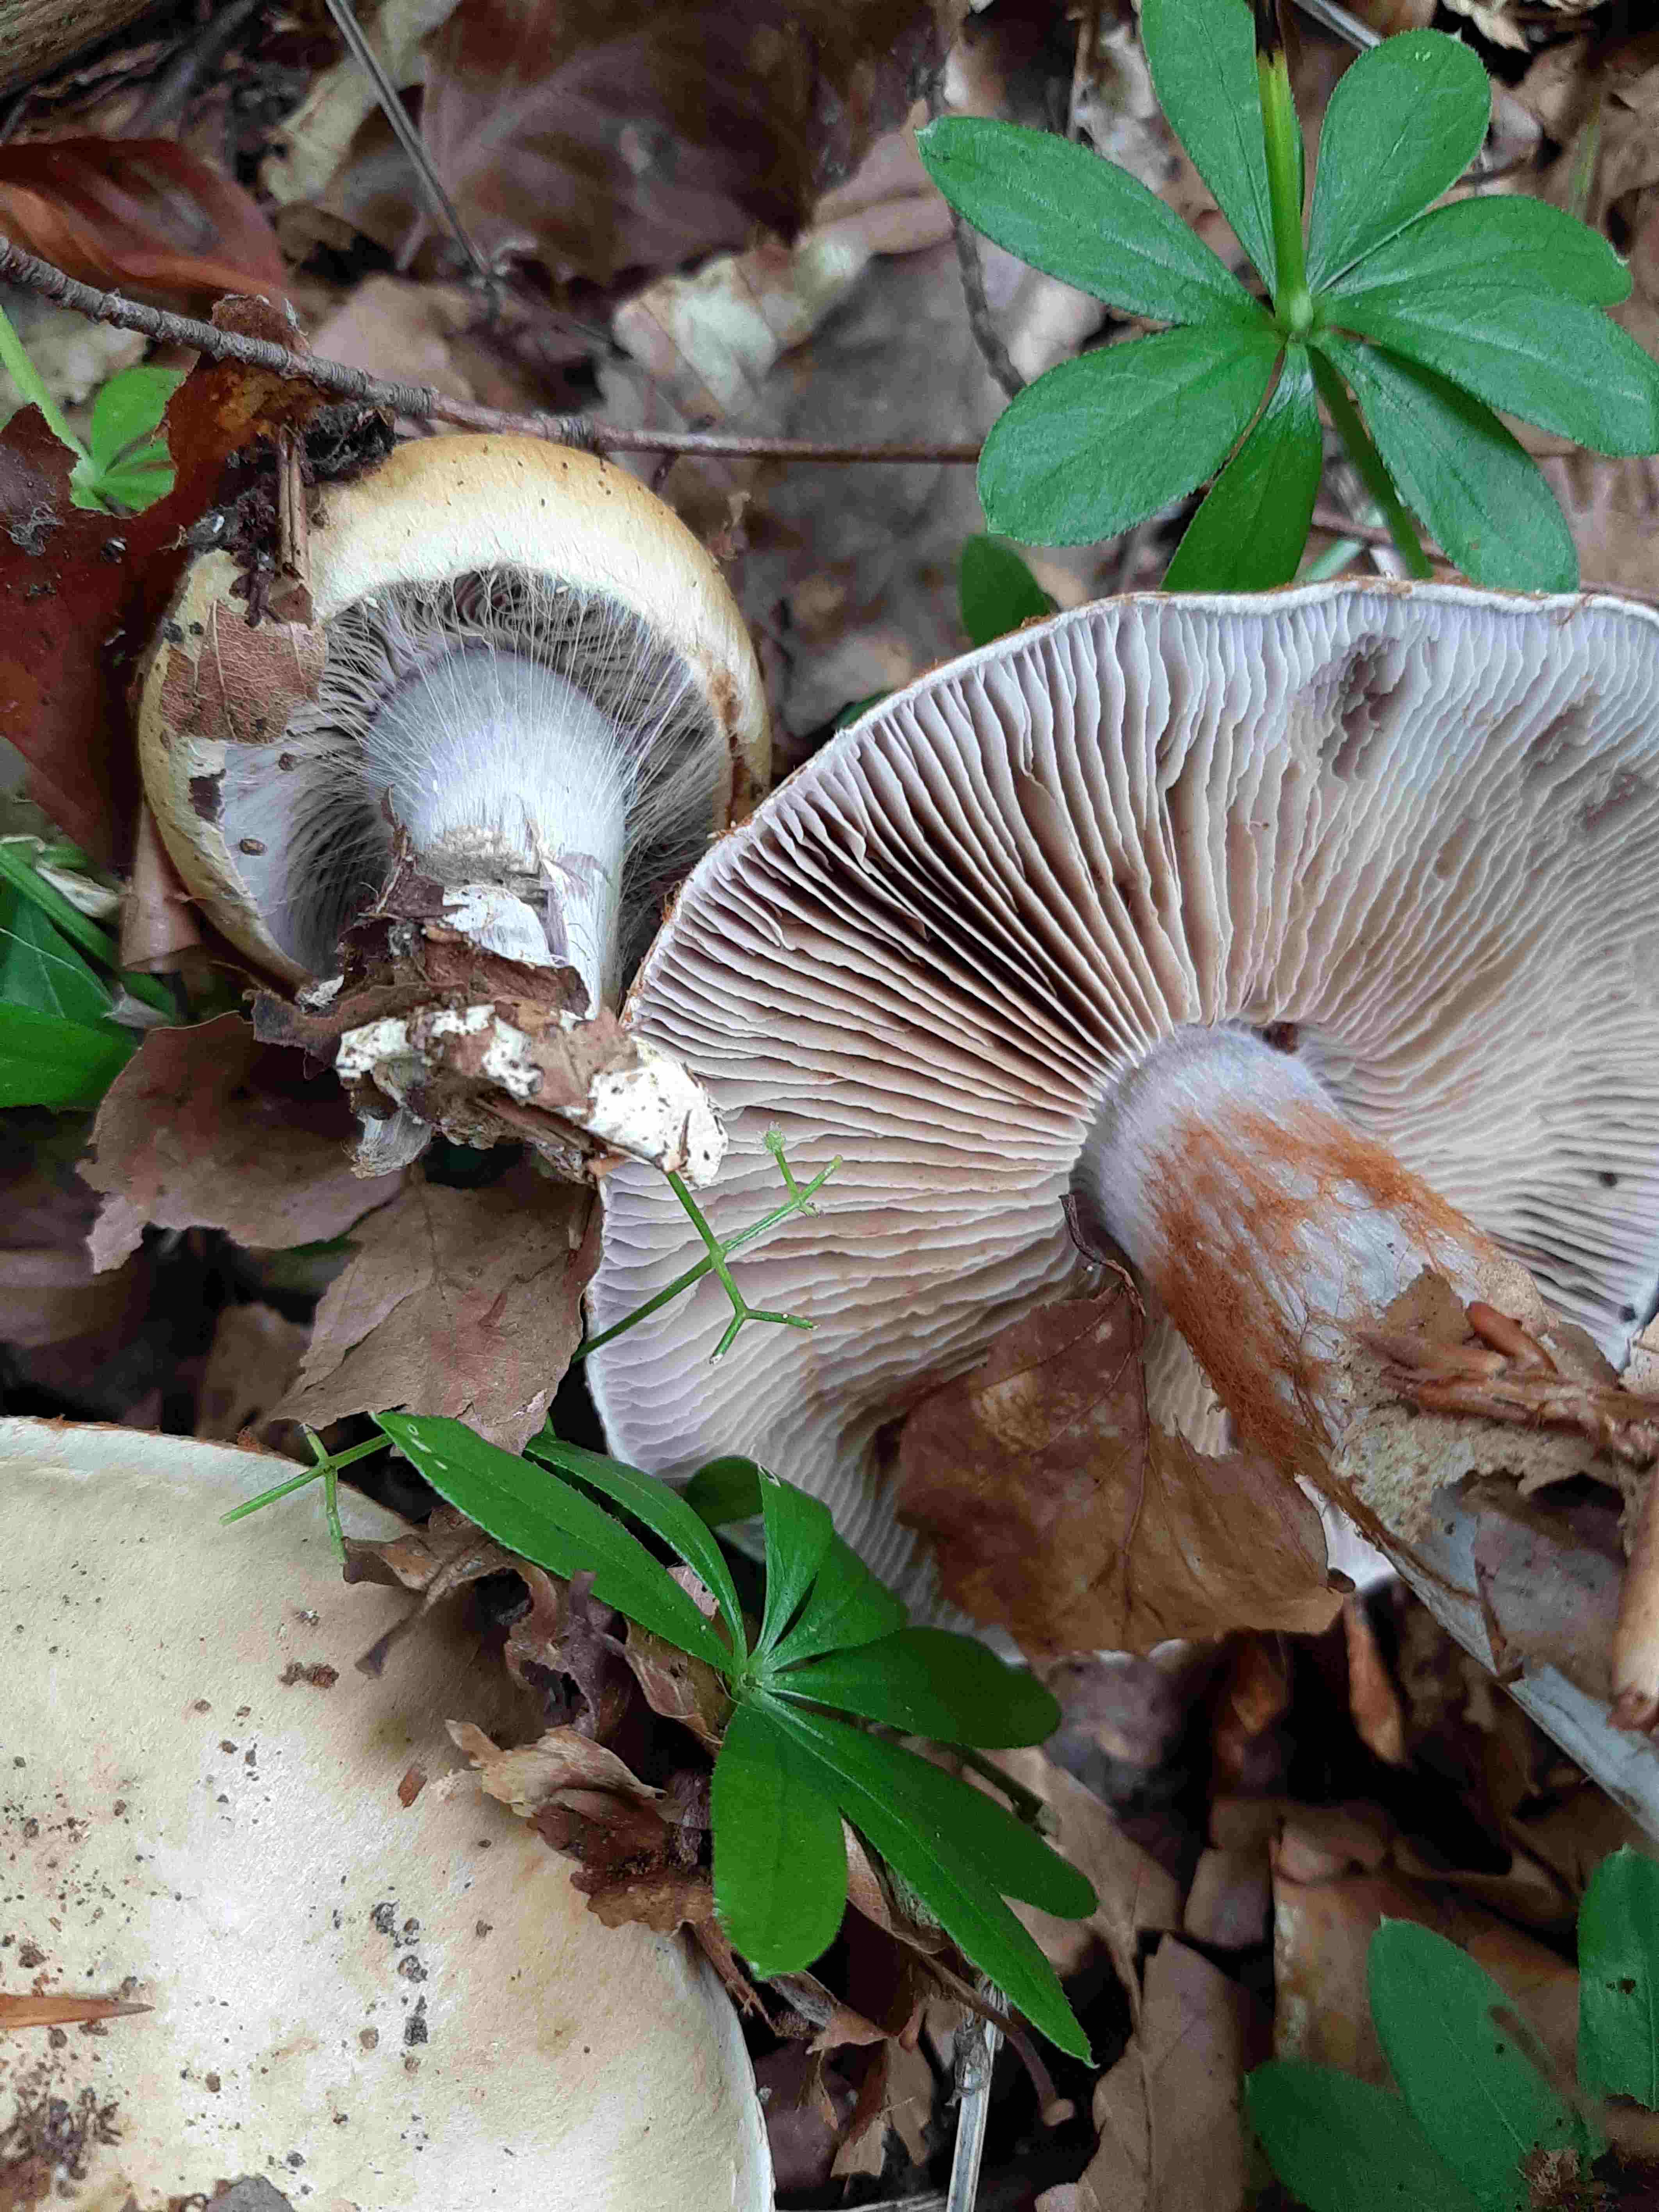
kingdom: Fungi
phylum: Basidiomycota
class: Agaricomycetes
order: Agaricales
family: Cortinariaceae
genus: Cortinarius
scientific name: Cortinarius anserinus
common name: bøge-slørhat
